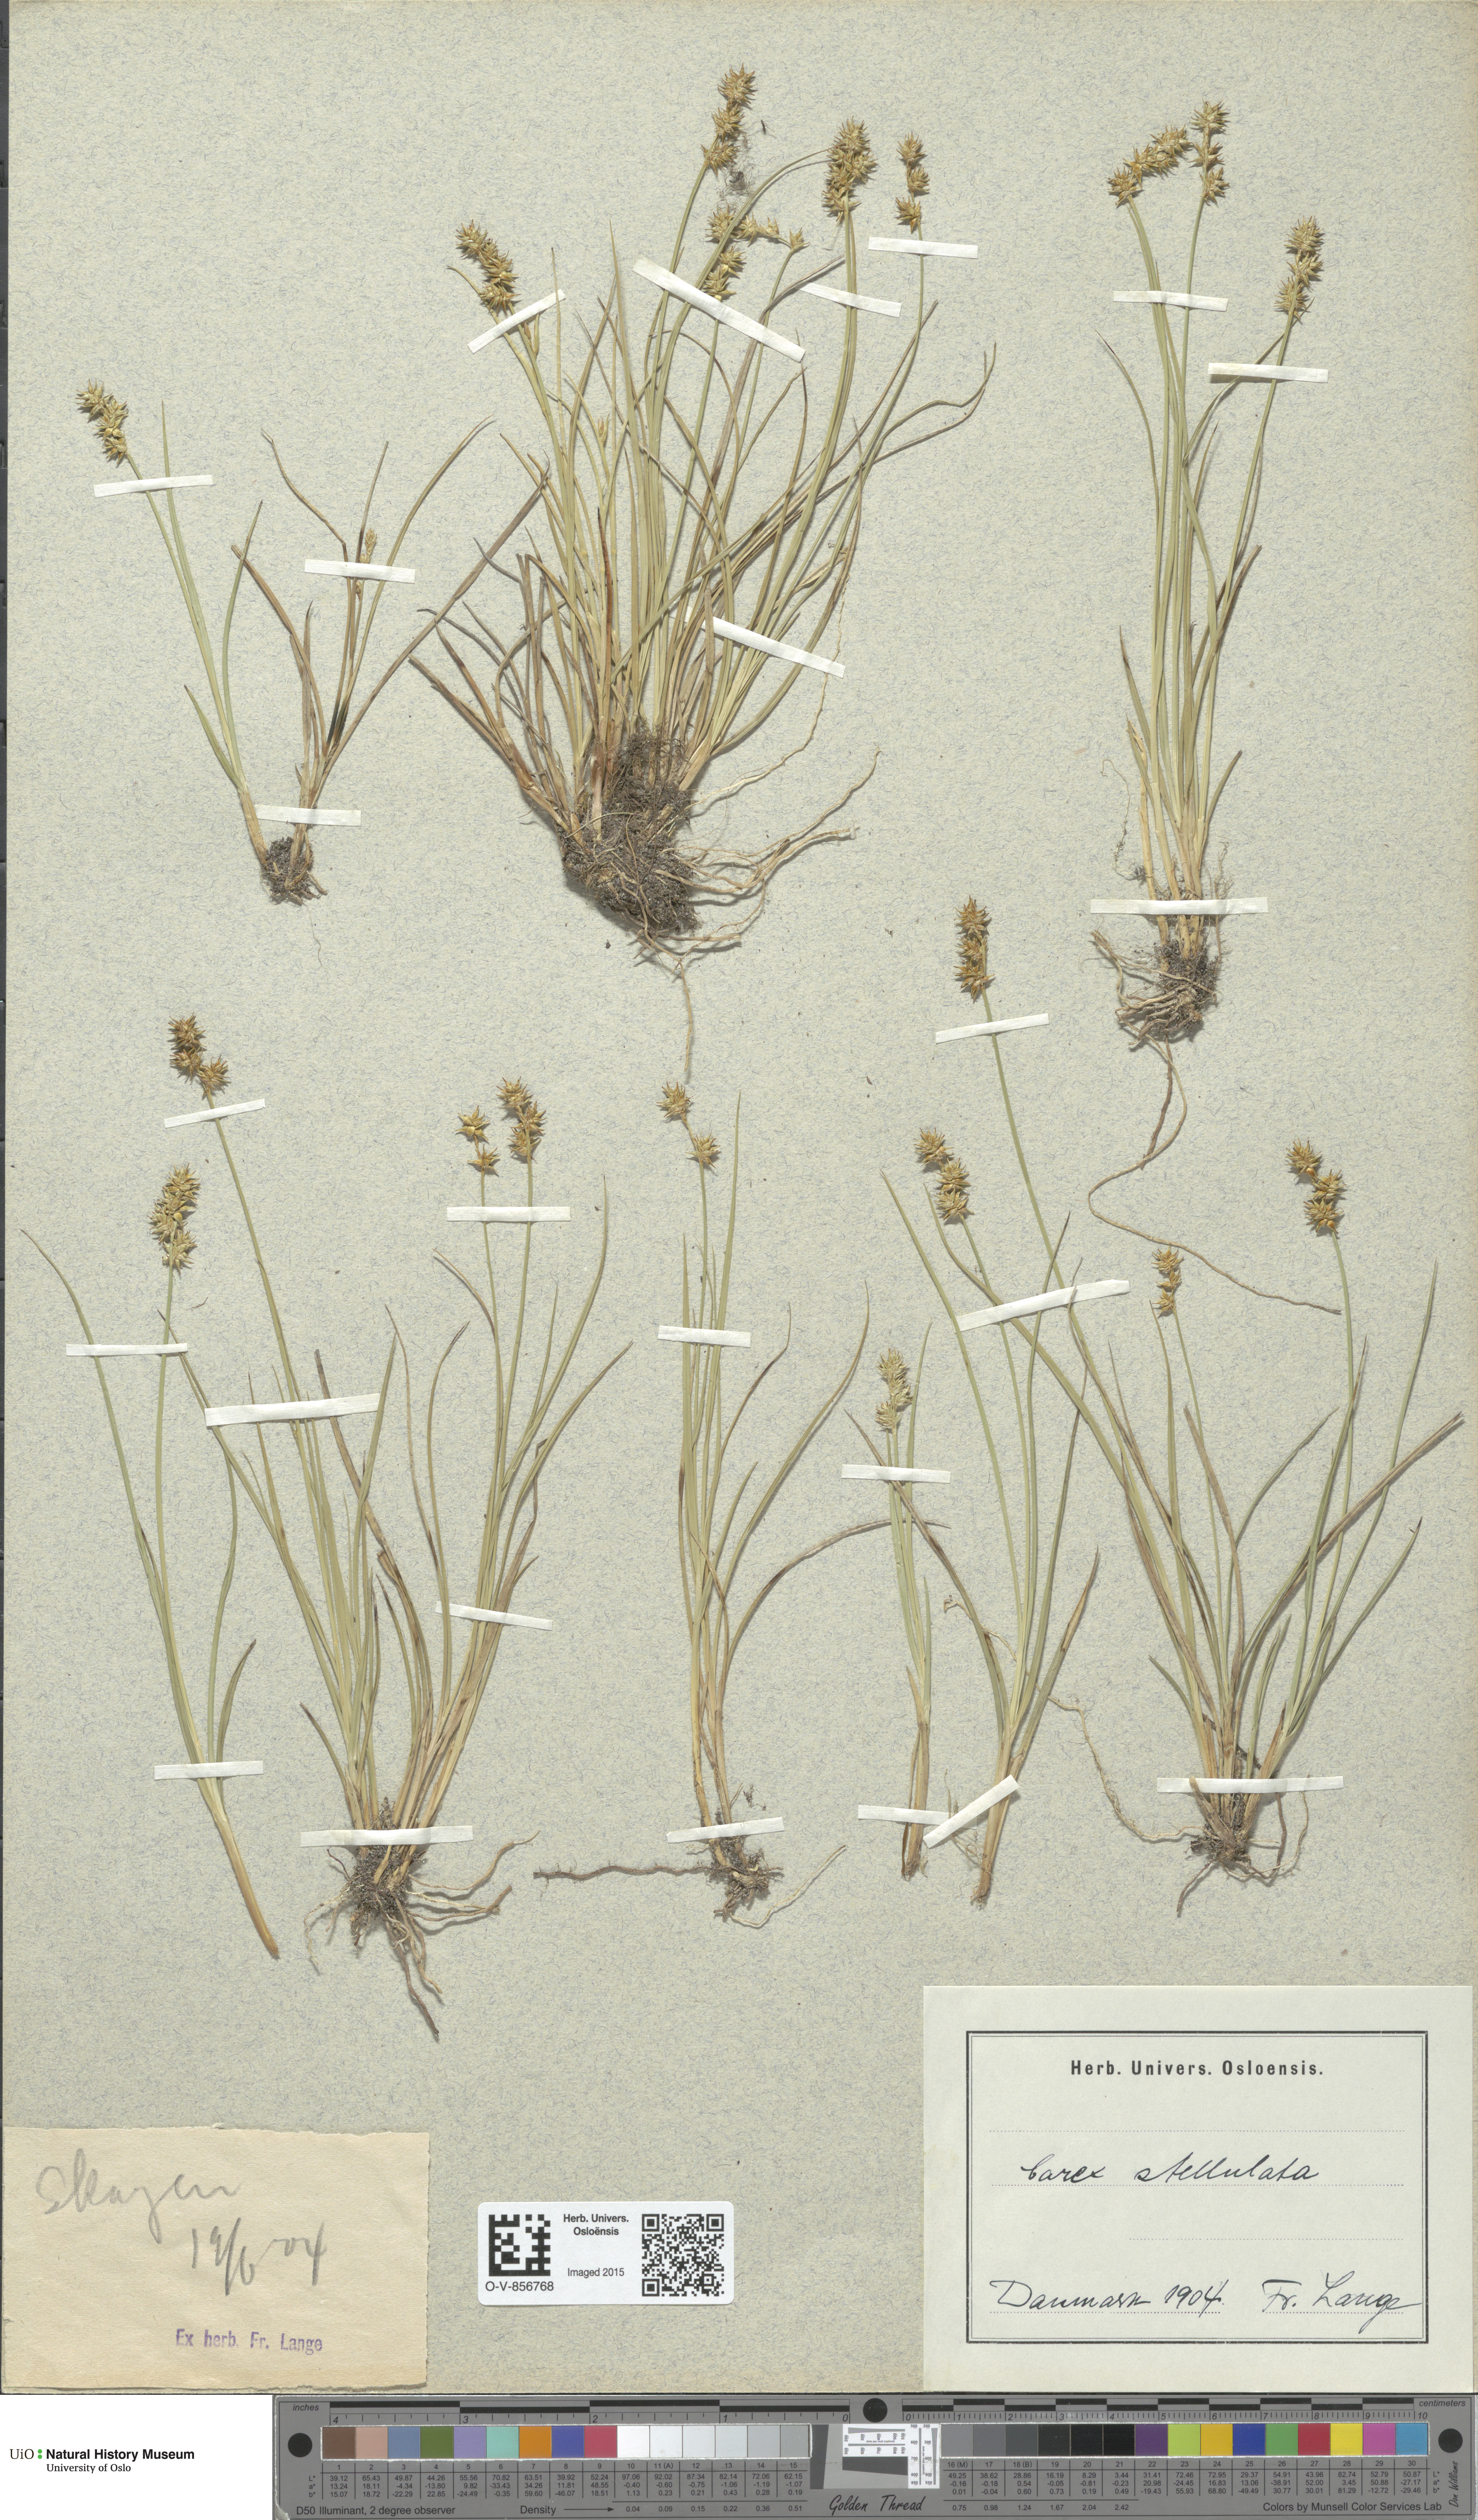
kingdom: Plantae
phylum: Tracheophyta
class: Liliopsida
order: Poales
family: Cyperaceae
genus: Carex
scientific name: Carex echinata
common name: Star sedge
